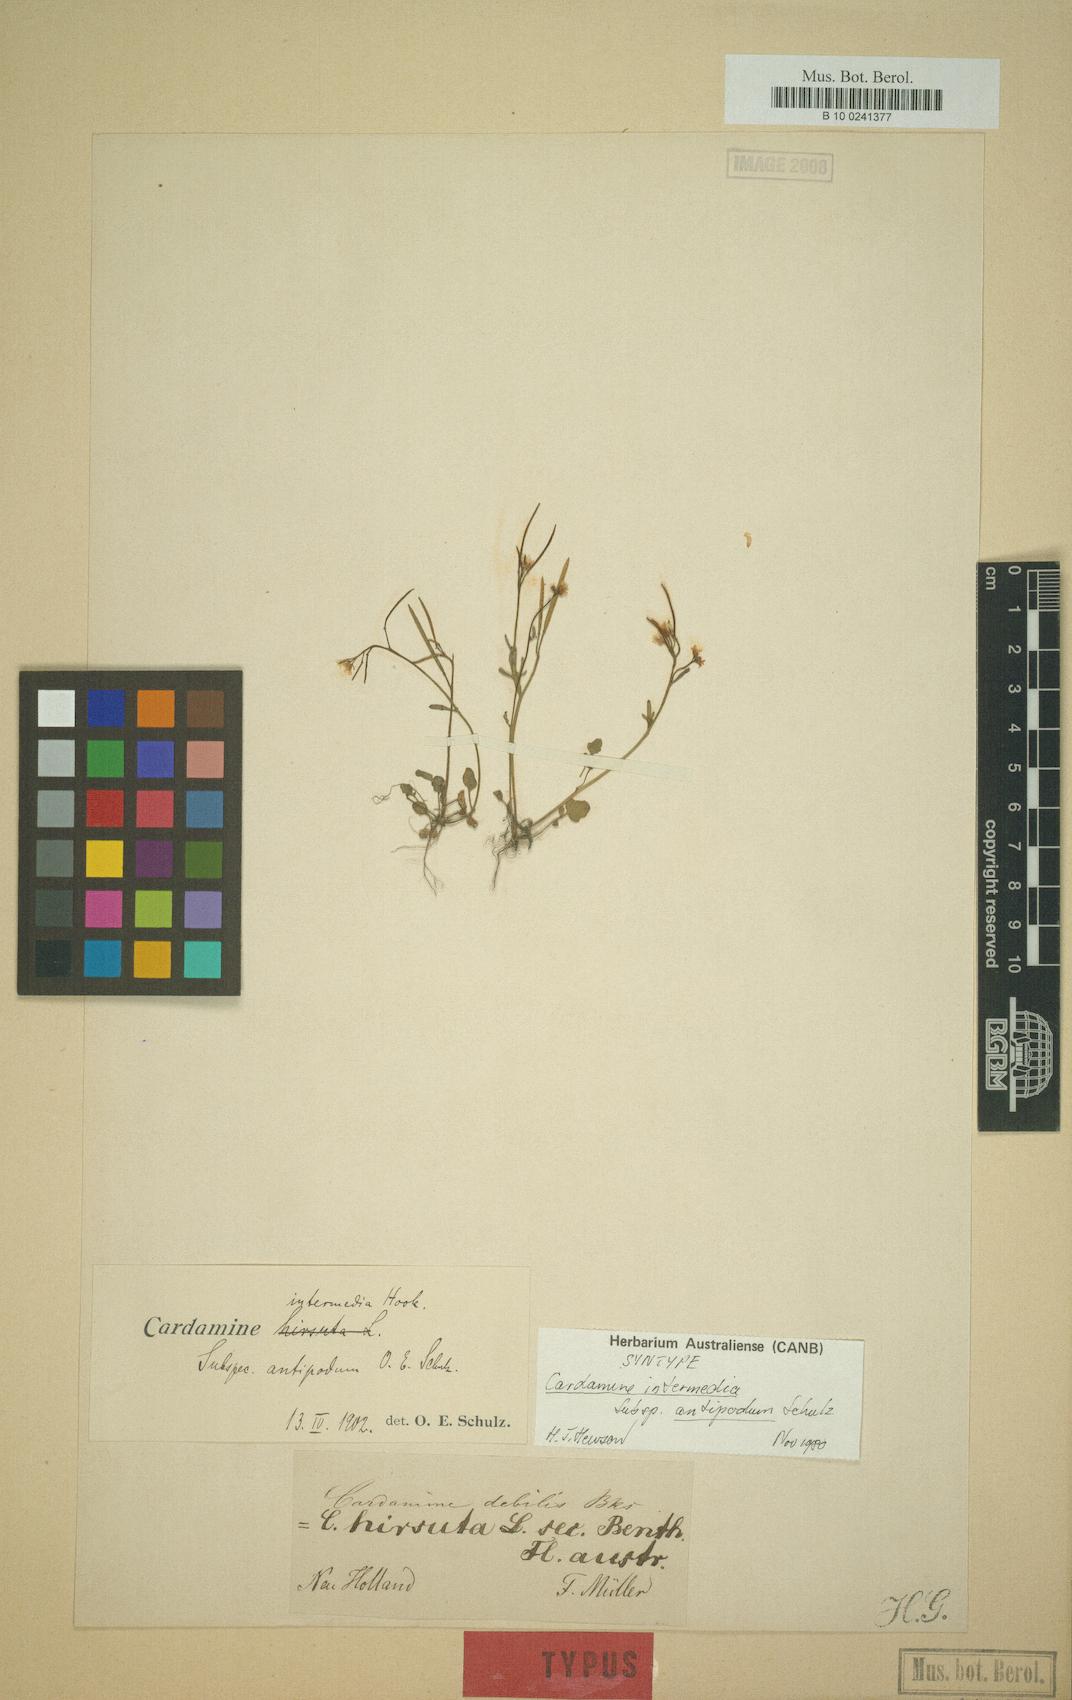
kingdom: Plantae
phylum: Tracheophyta
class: Magnoliopsida
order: Brassicales
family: Brassicaceae
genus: Cardamine
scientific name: Cardamine paucijuga
